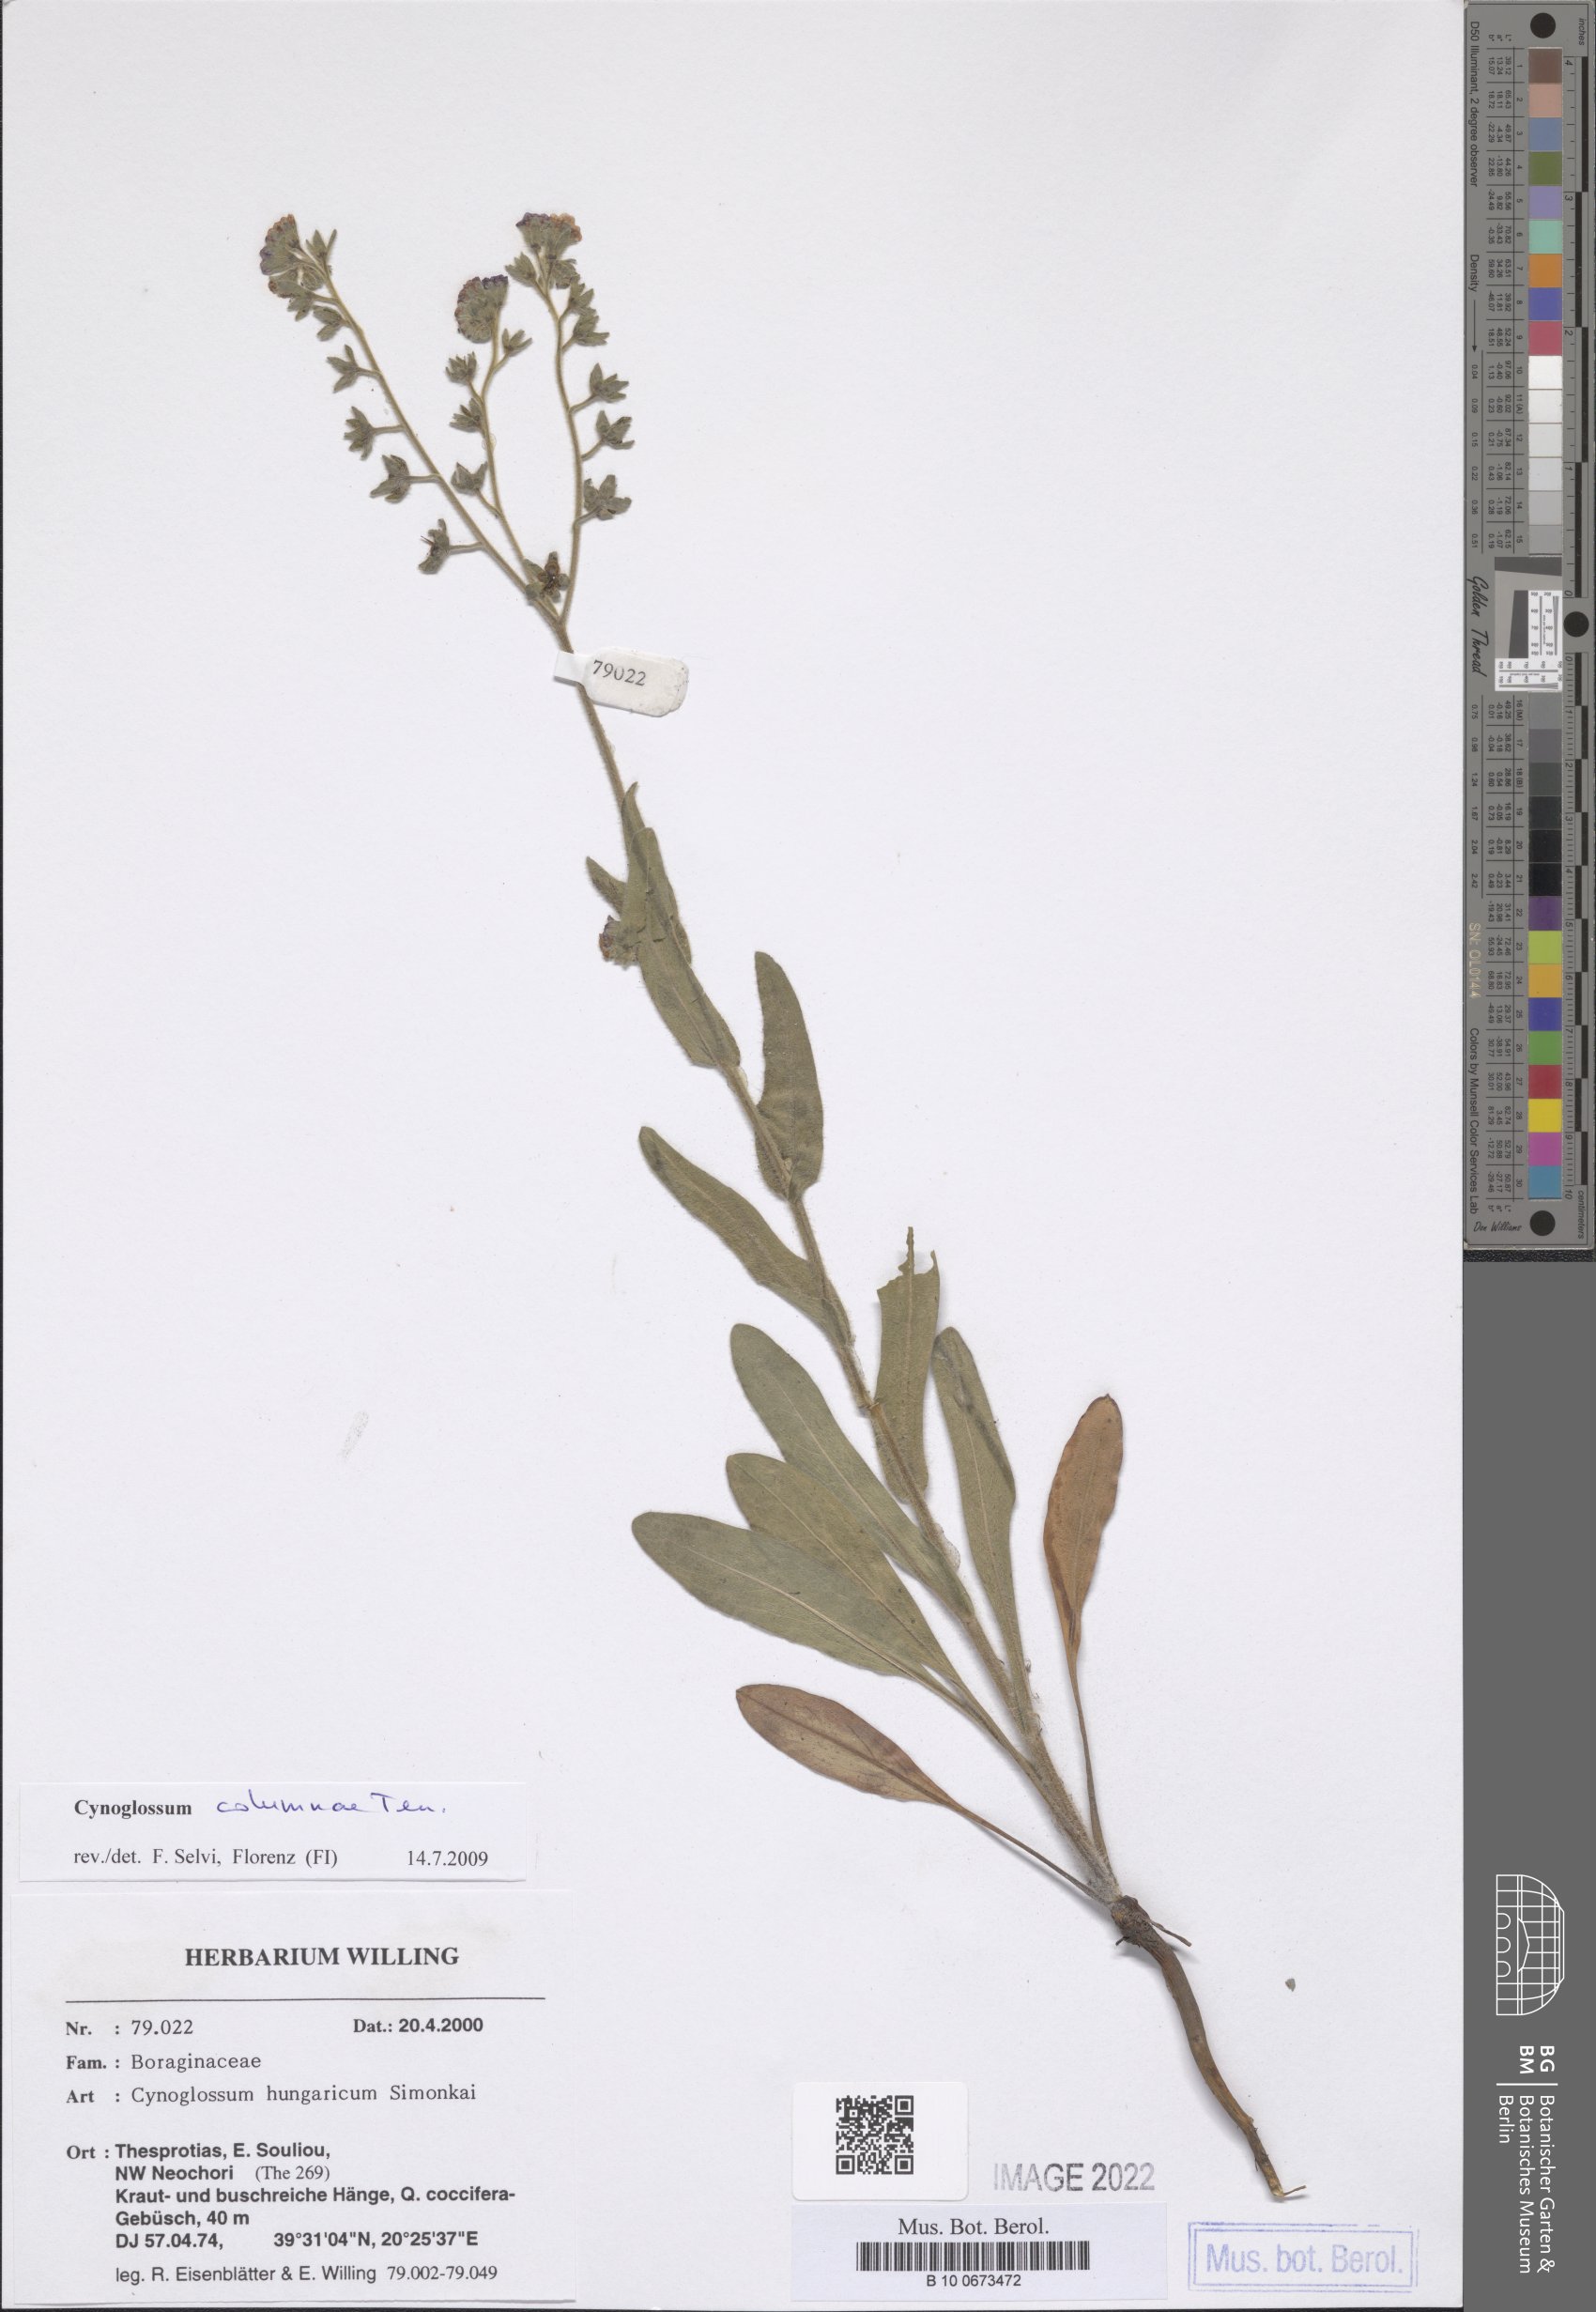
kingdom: Plantae
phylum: Tracheophyta
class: Magnoliopsida
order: Boraginales
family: Boraginaceae
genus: Rindera
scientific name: Rindera columnae
